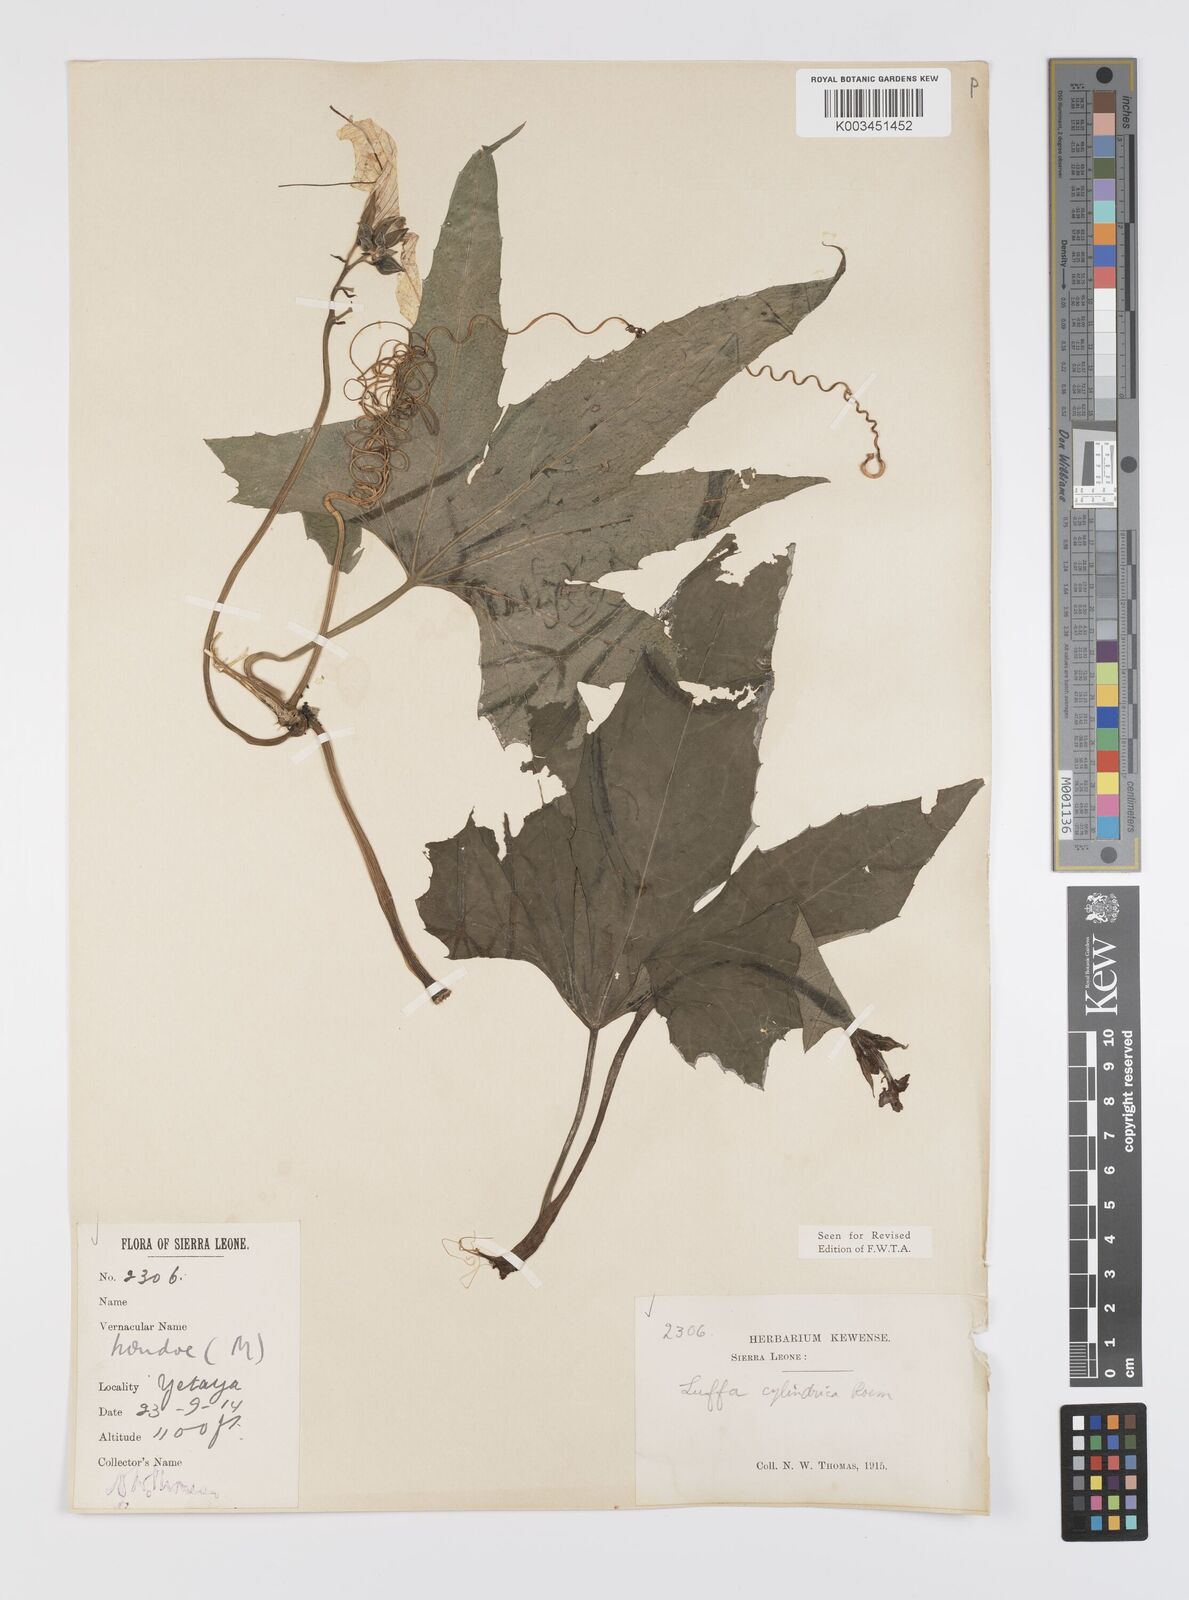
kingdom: Plantae
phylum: Tracheophyta
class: Magnoliopsida
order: Cucurbitales
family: Cucurbitaceae
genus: Luffa
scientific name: Luffa aegyptiaca
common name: Sponge gourd
